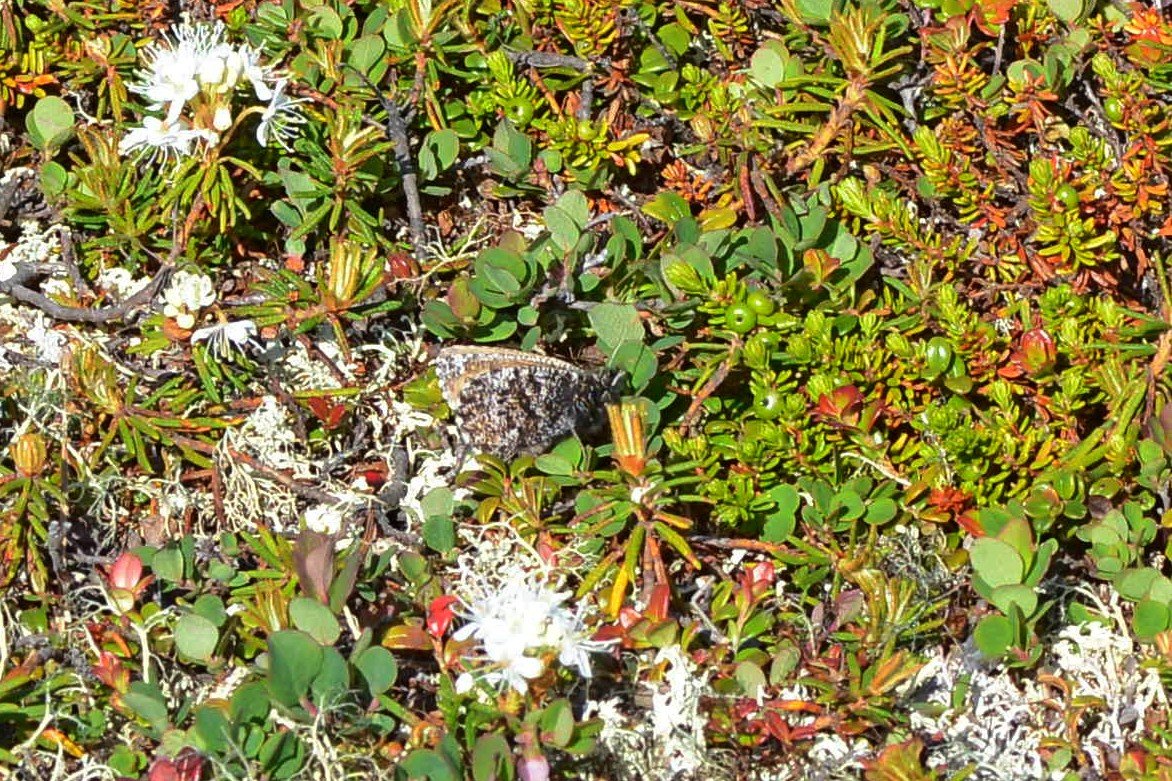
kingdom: Animalia
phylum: Arthropoda
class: Insecta
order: Lepidoptera
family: Nymphalidae
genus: Oeneis
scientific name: Oeneis melissa
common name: Melissa Arctic
